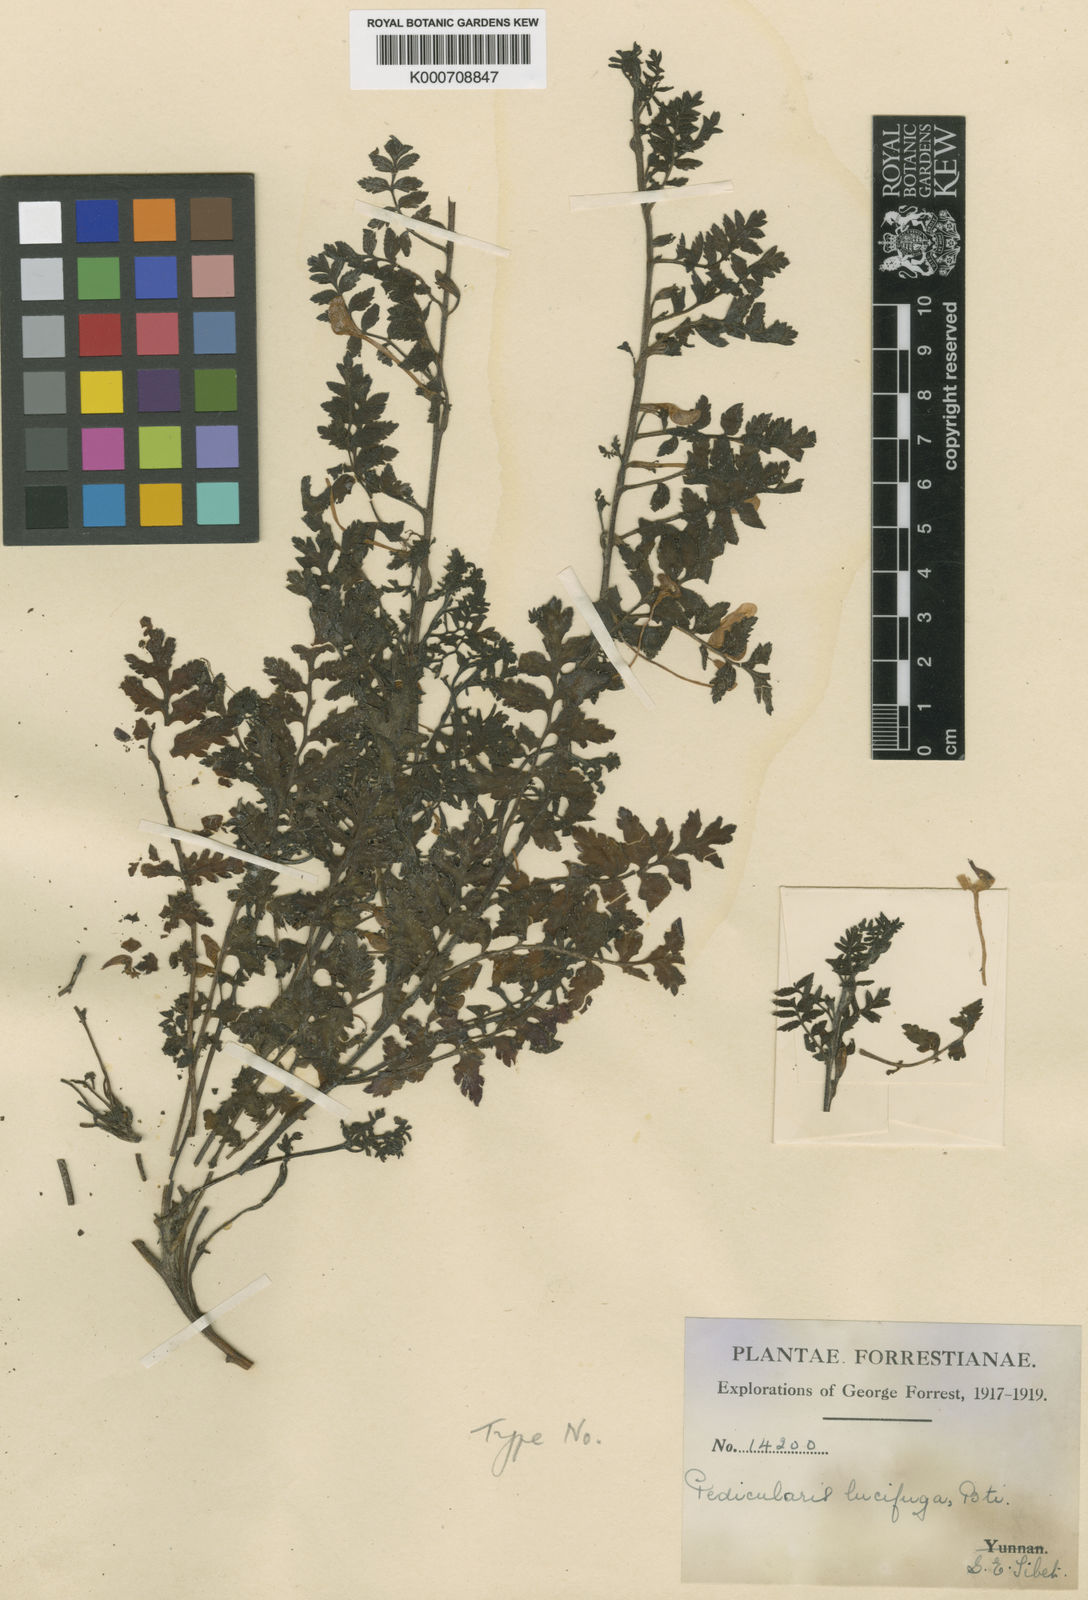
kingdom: Plantae
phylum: Tracheophyta
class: Magnoliopsida
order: Lamiales
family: Orobanchaceae
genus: Pedicularis
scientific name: Pedicularis macrosiphon
